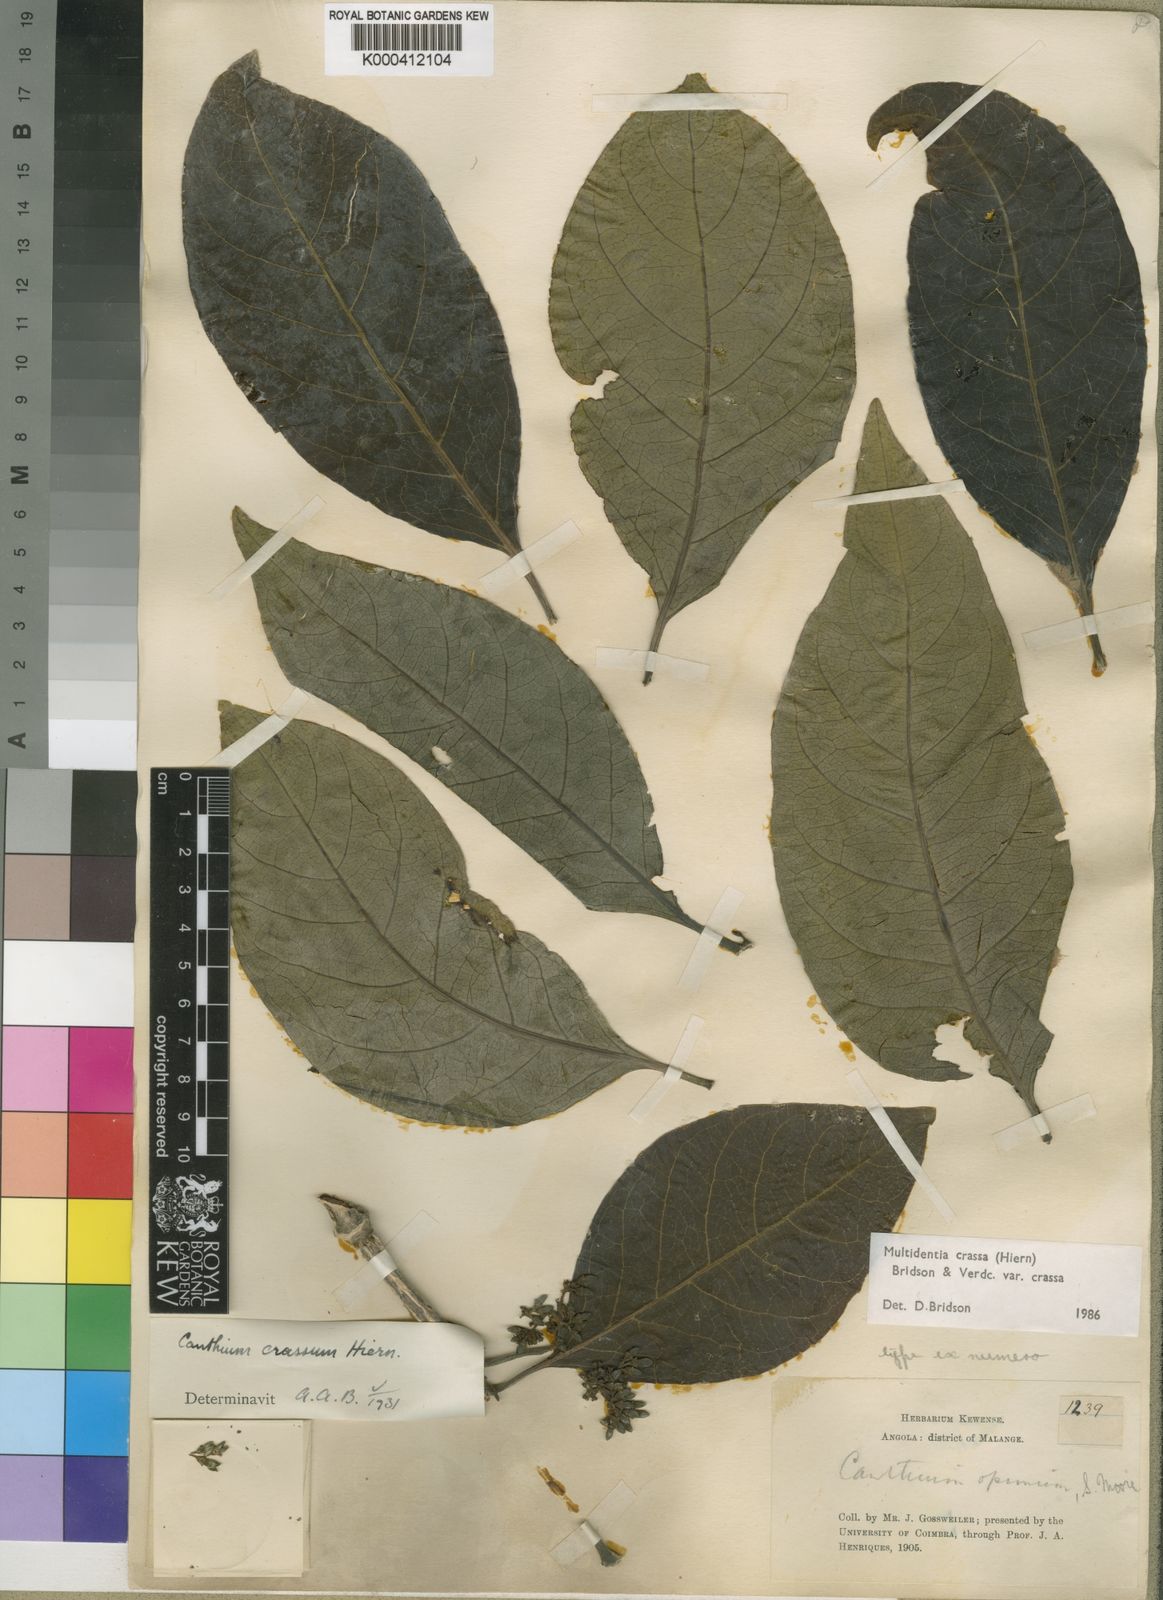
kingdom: Plantae
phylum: Tracheophyta
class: Magnoliopsida
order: Gentianales
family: Rubiaceae
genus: Multidentia
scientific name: Multidentia crassa
